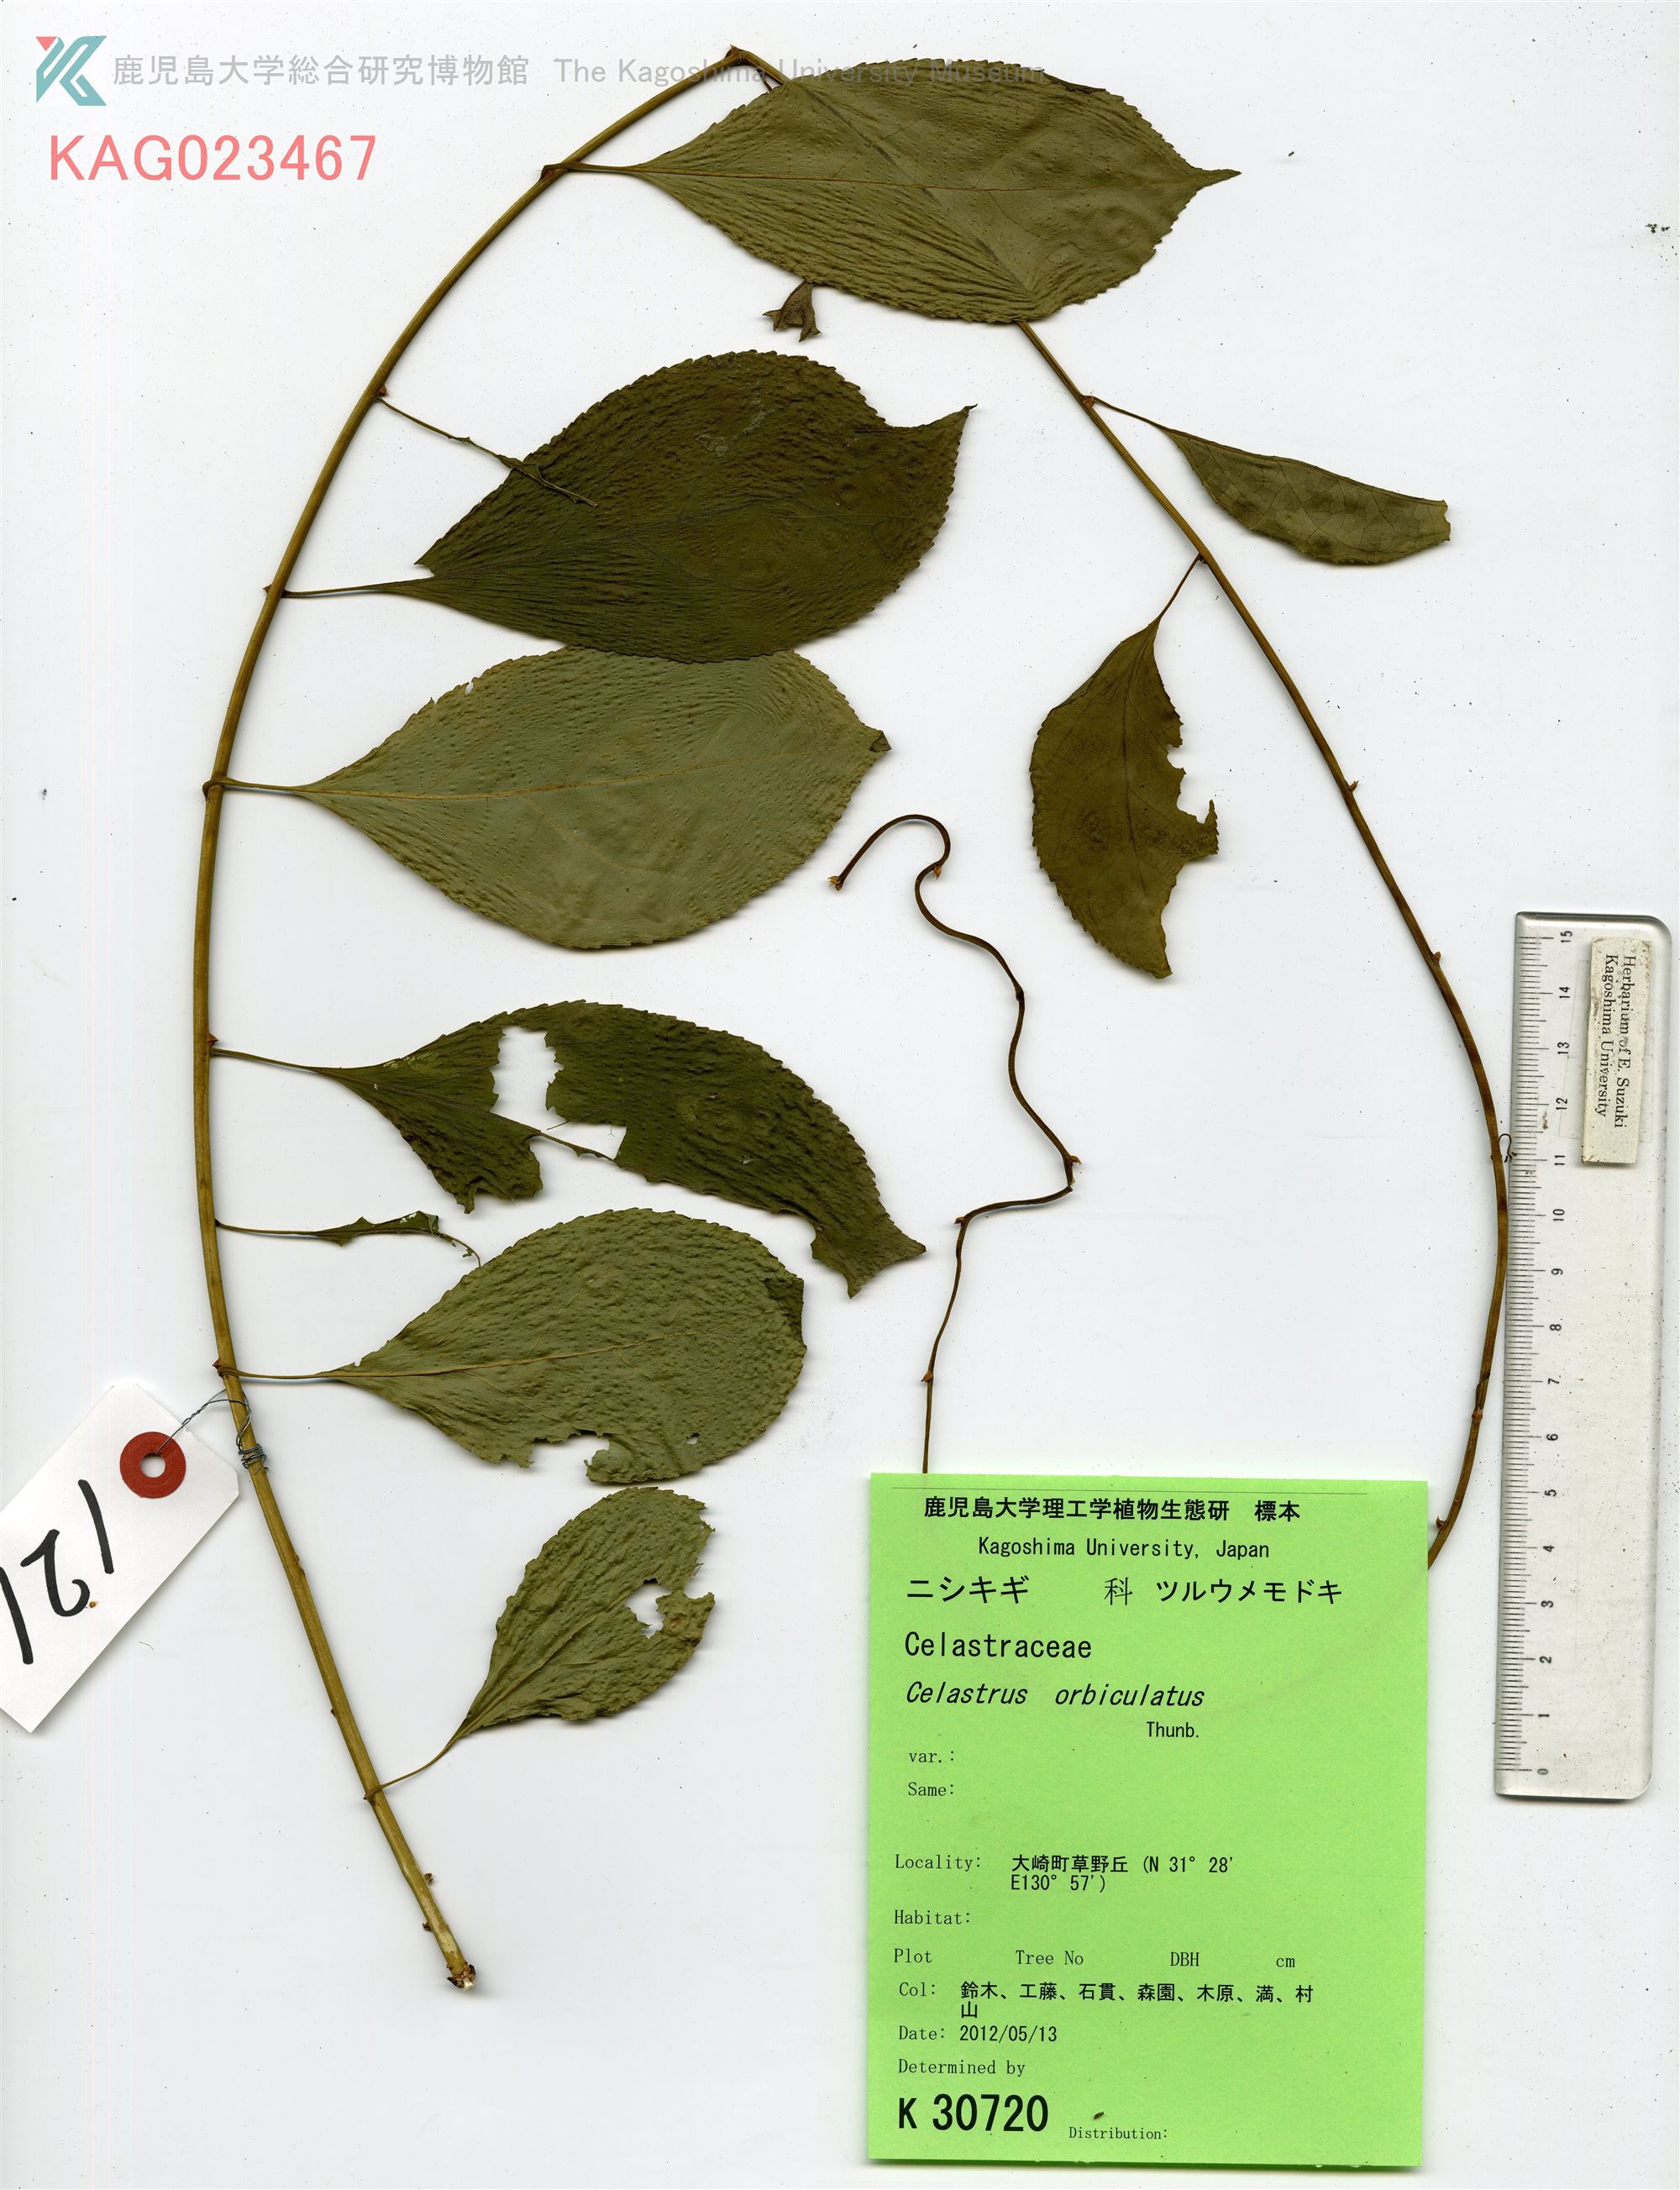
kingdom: Plantae
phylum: Tracheophyta
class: Magnoliopsida
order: Celastrales
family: Celastraceae
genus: Celastrus
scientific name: Celastrus orbiculatus
